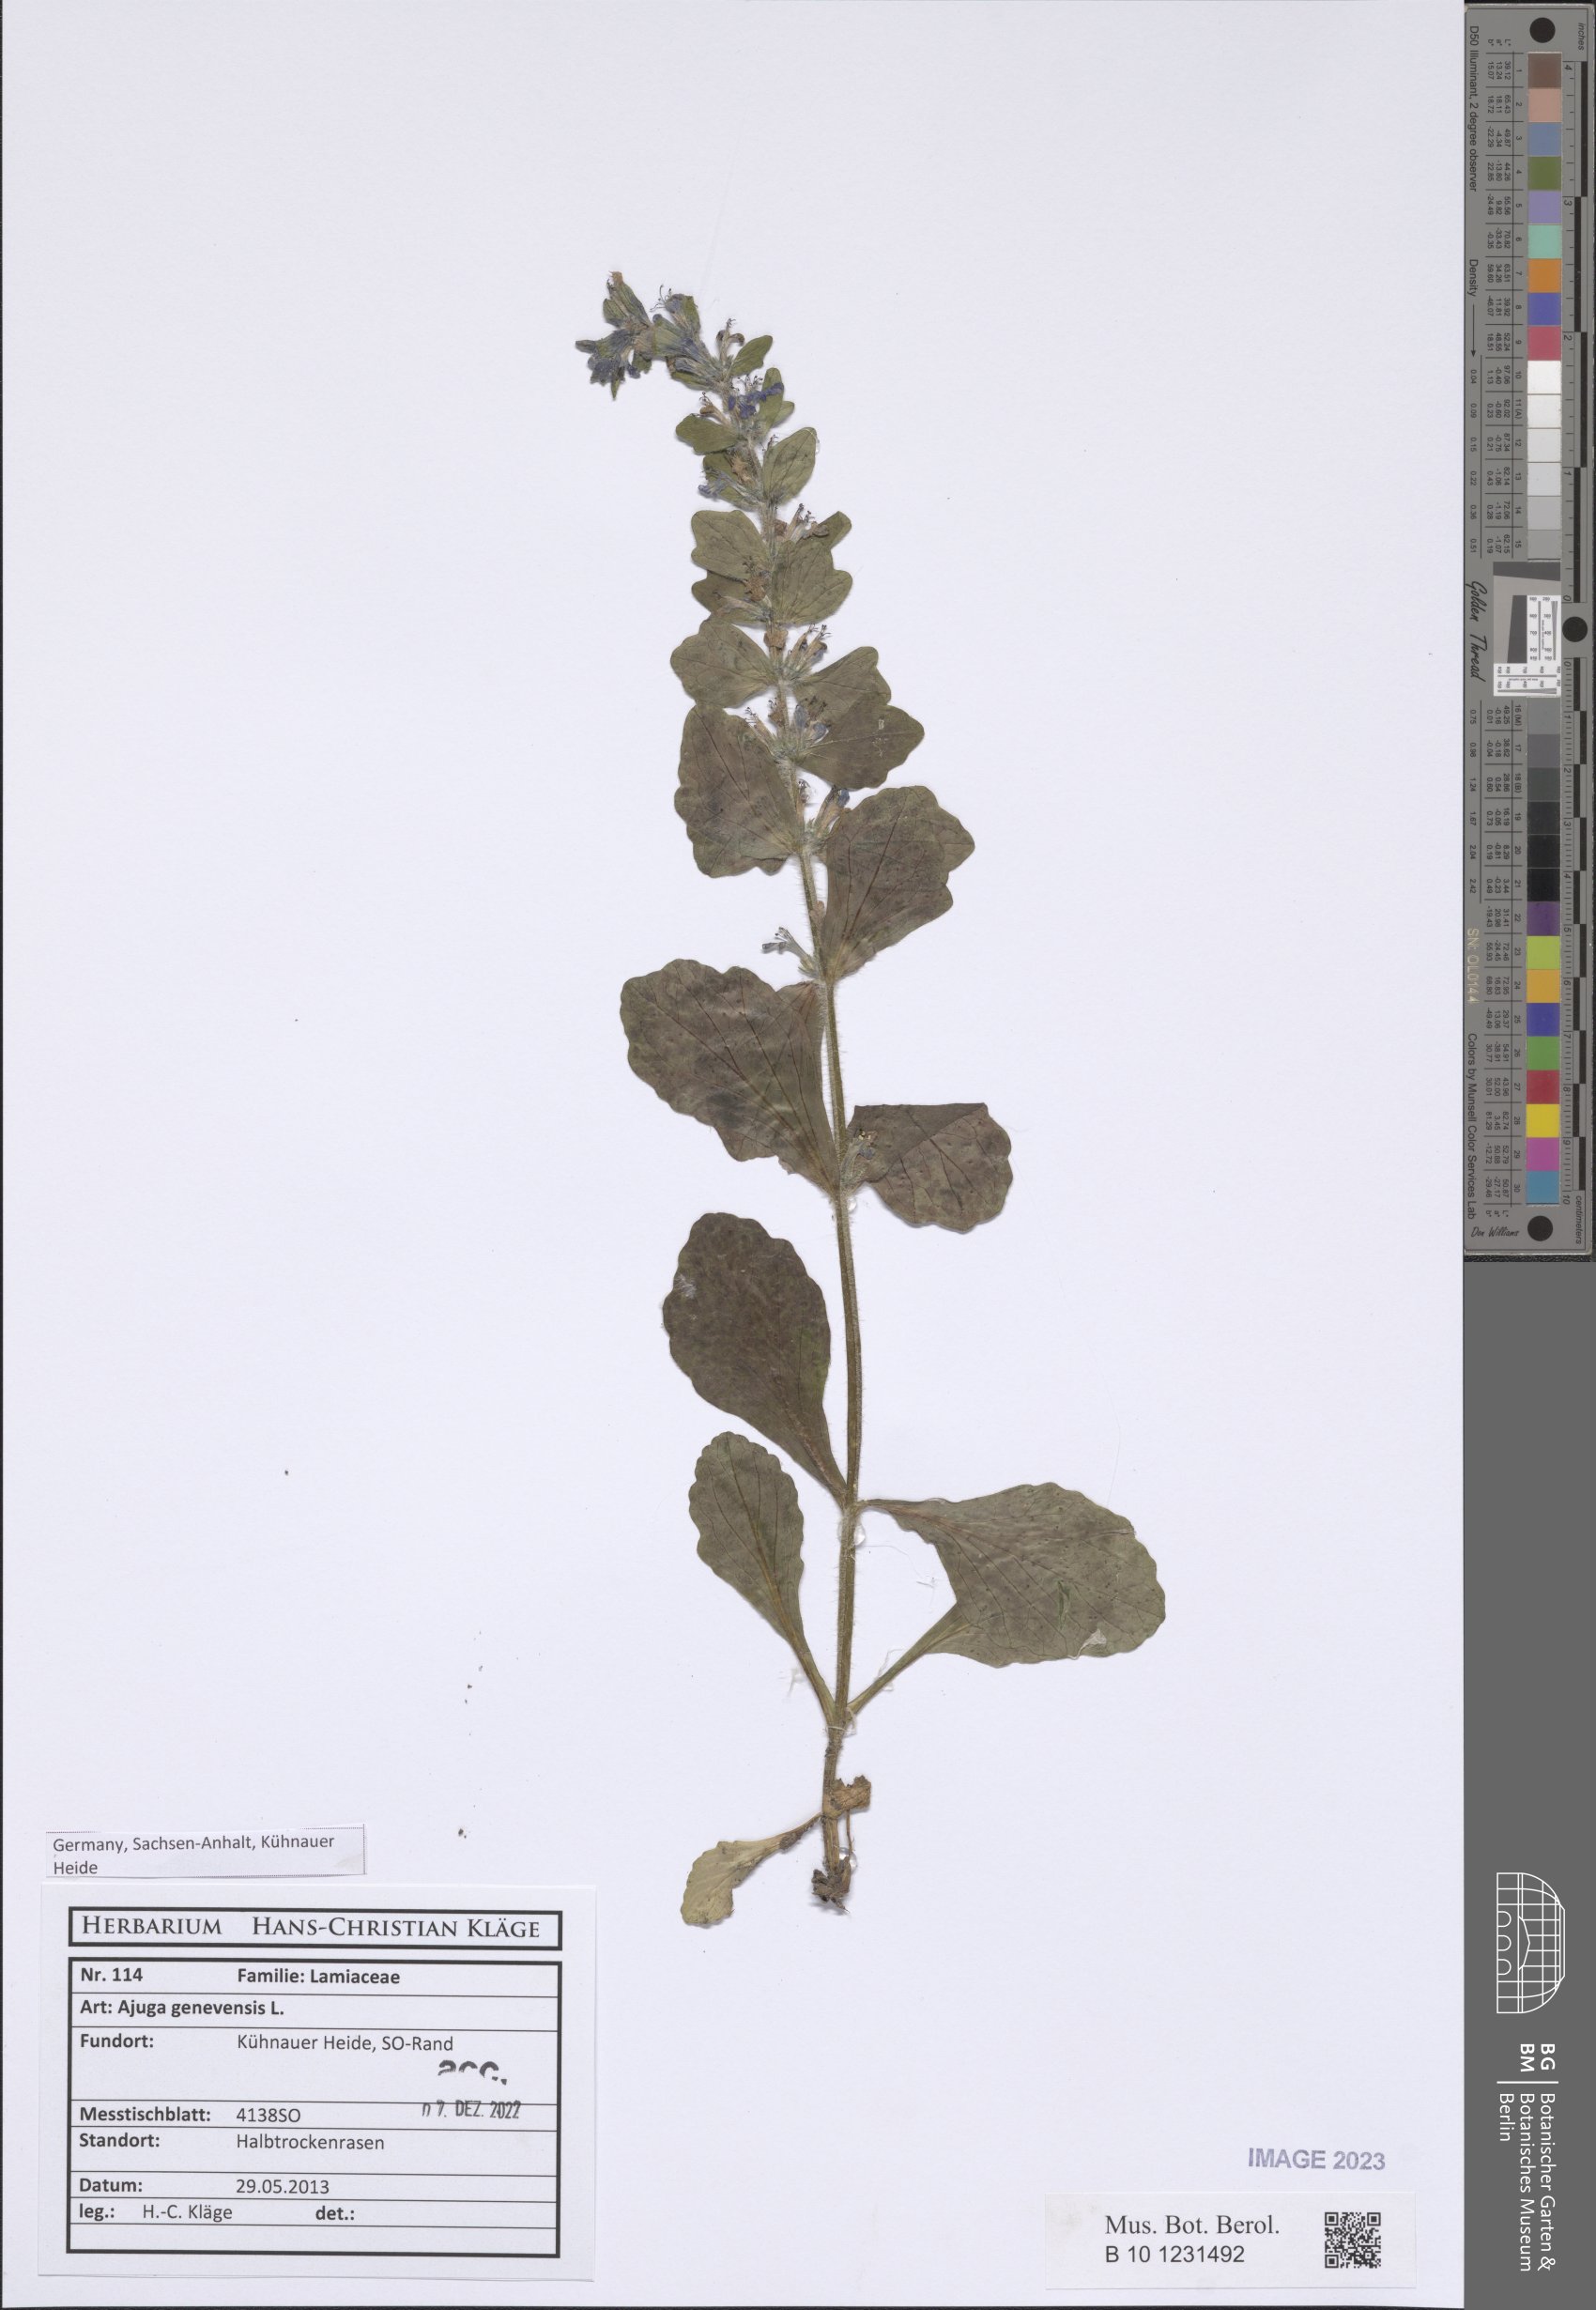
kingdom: Plantae
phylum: Tracheophyta
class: Magnoliopsida
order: Lamiales
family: Lamiaceae
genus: Ajuga
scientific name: Ajuga genevensis
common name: Blue bugle
